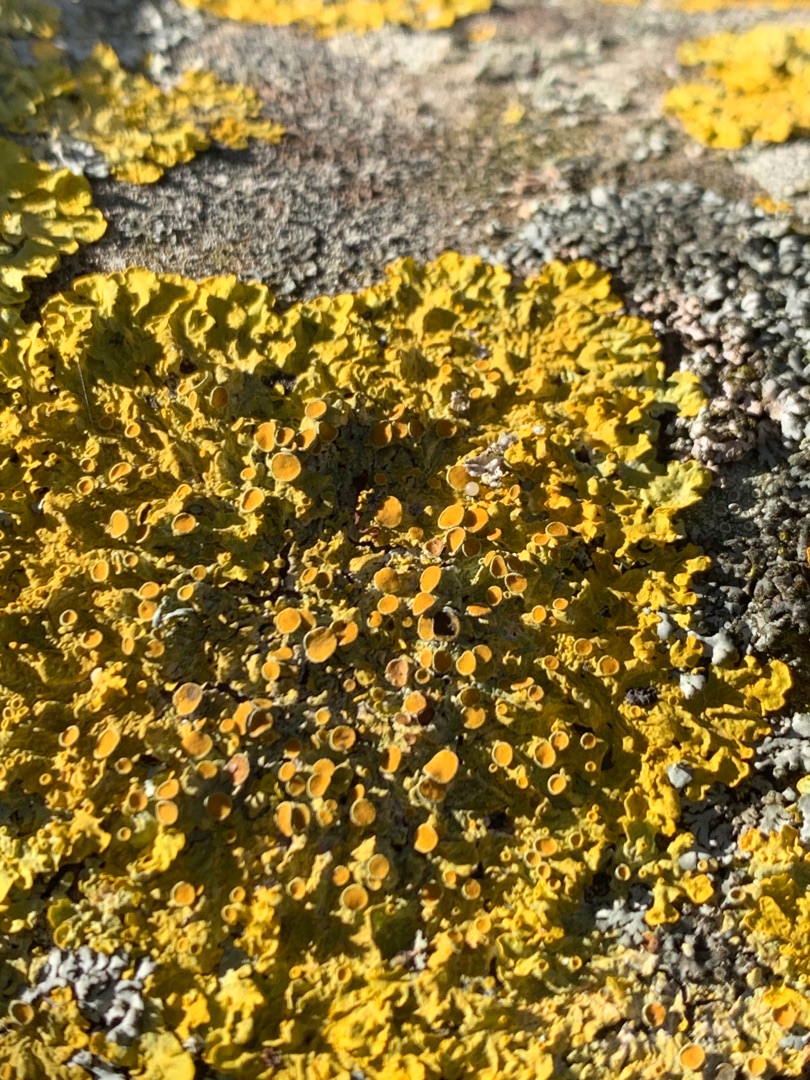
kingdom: Fungi
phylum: Ascomycota
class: Lecanoromycetes
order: Teloschistales
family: Teloschistaceae
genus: Xanthoria
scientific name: Xanthoria parietina
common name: Almindelig væggelav
